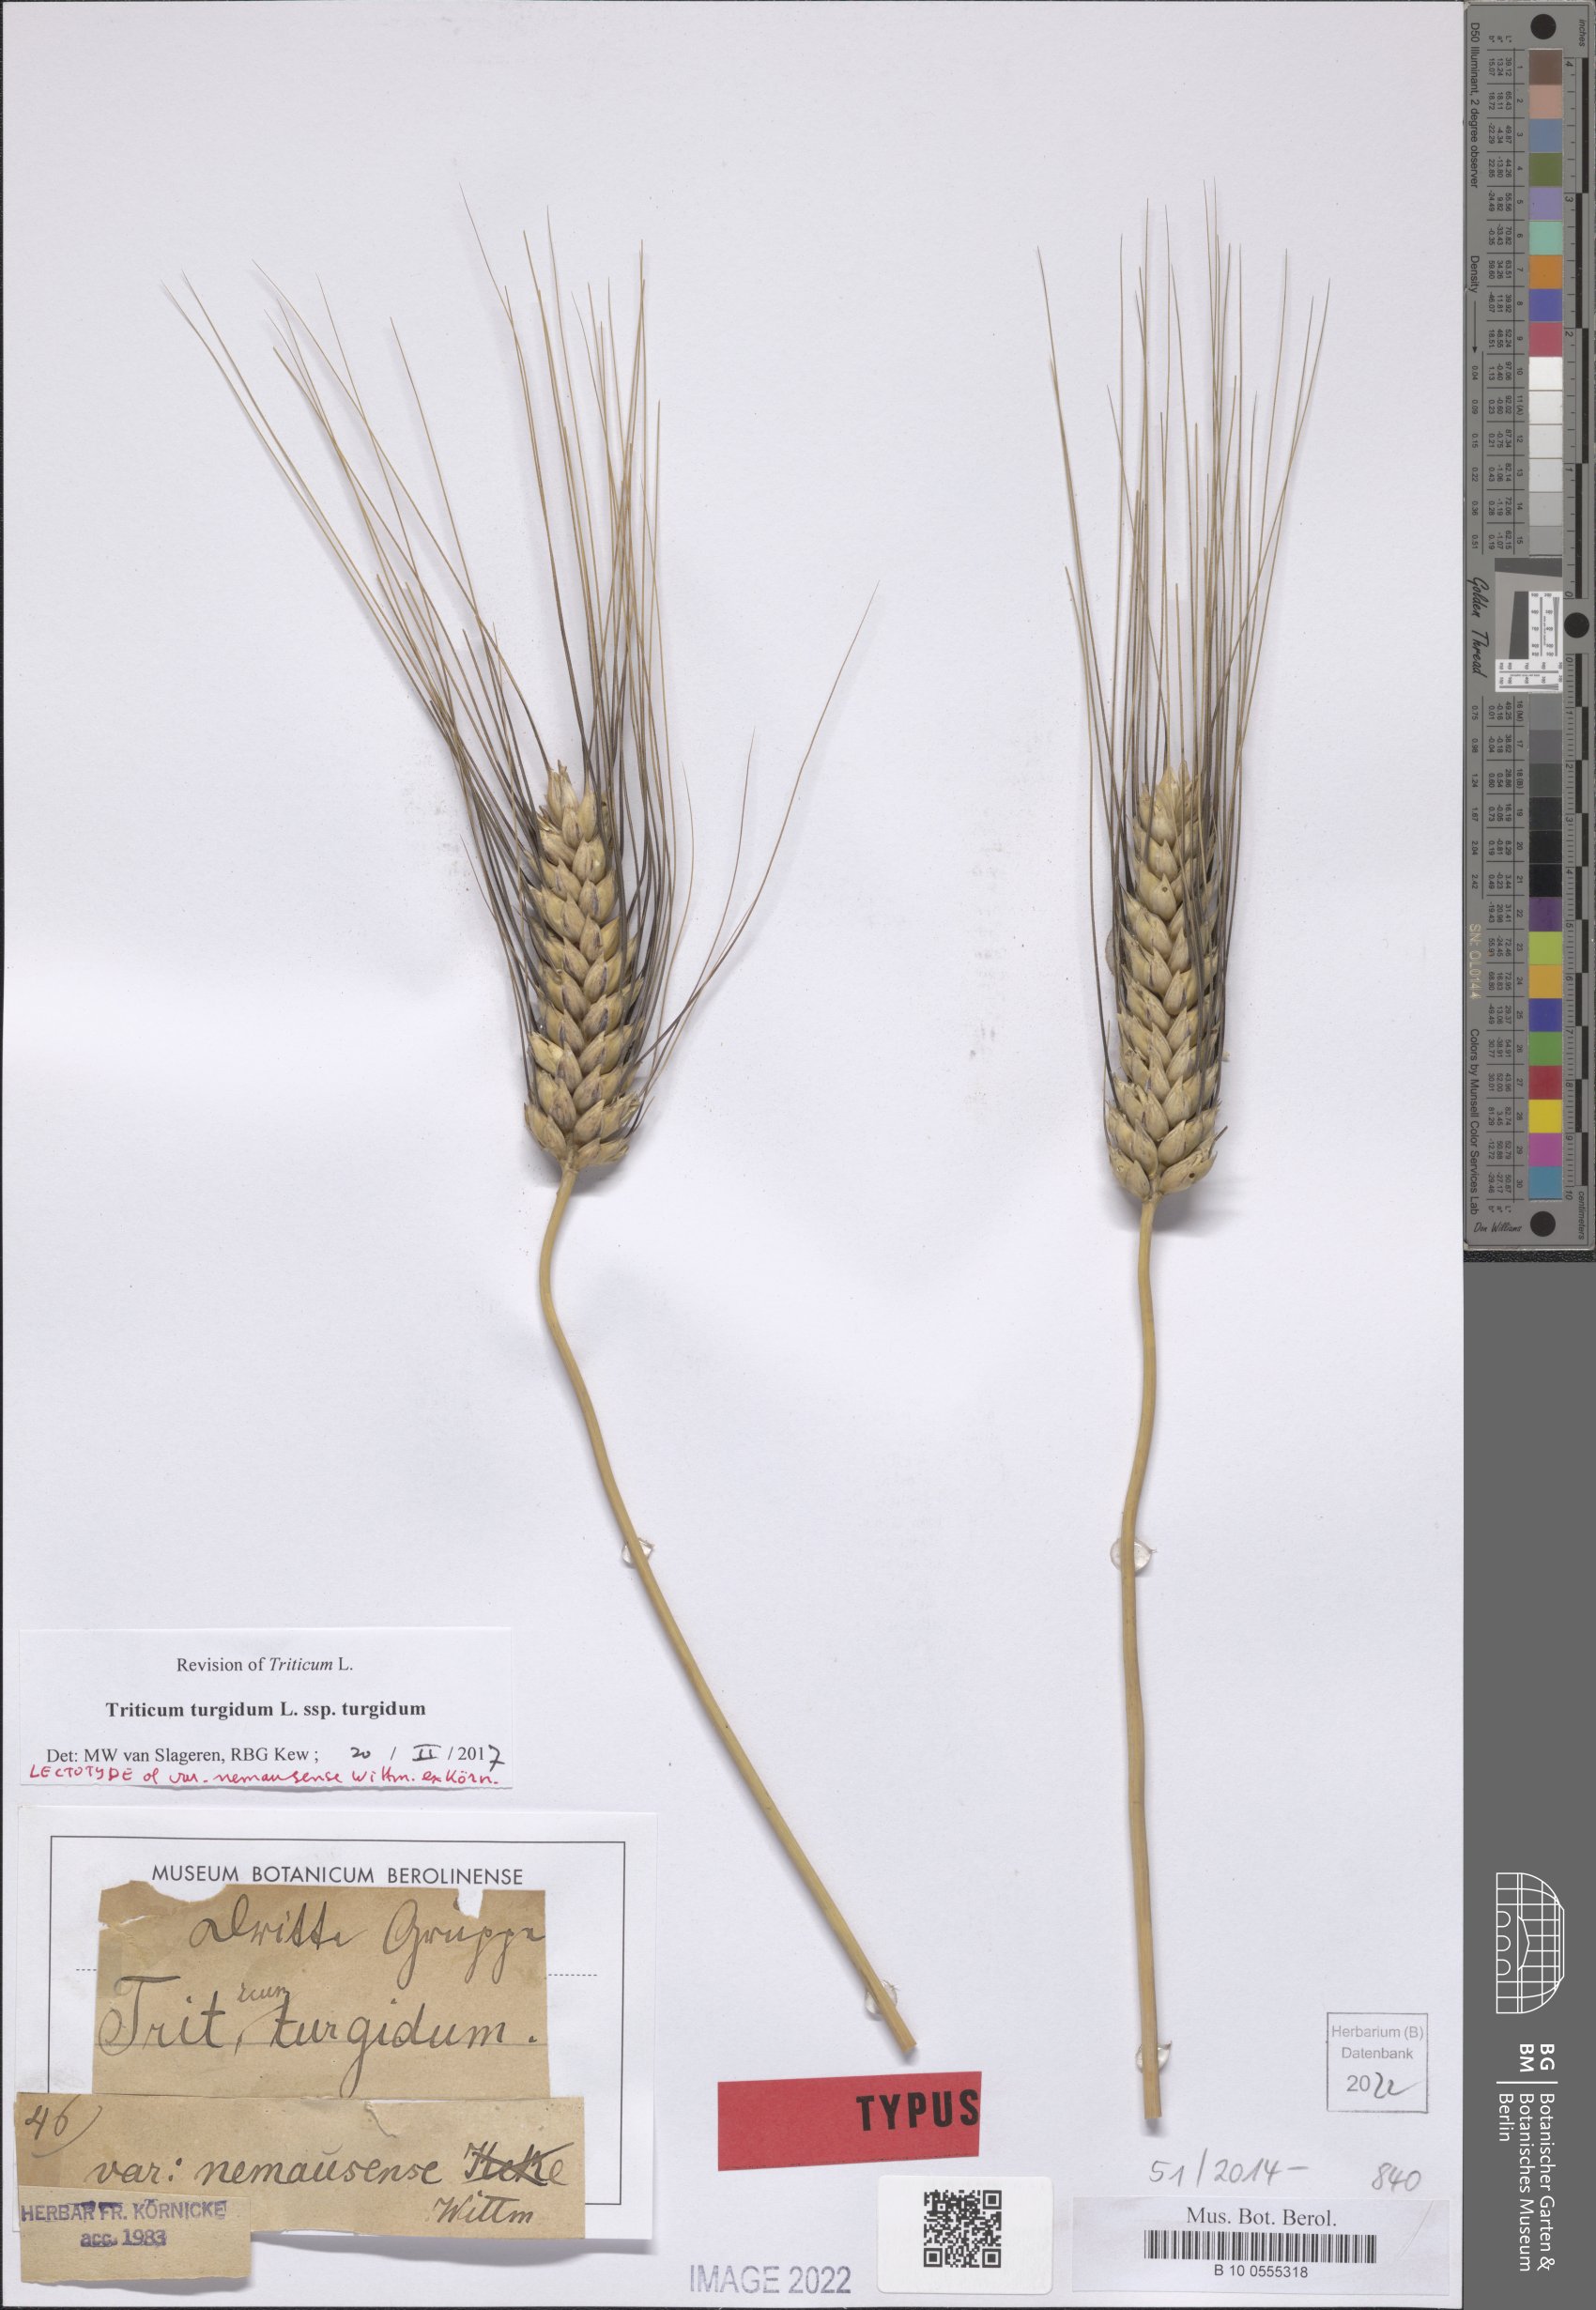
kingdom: Plantae
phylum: Tracheophyta
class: Liliopsida
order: Poales
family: Poaceae
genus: Triticum
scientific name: Triticum turgidum
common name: Rivet wheat
